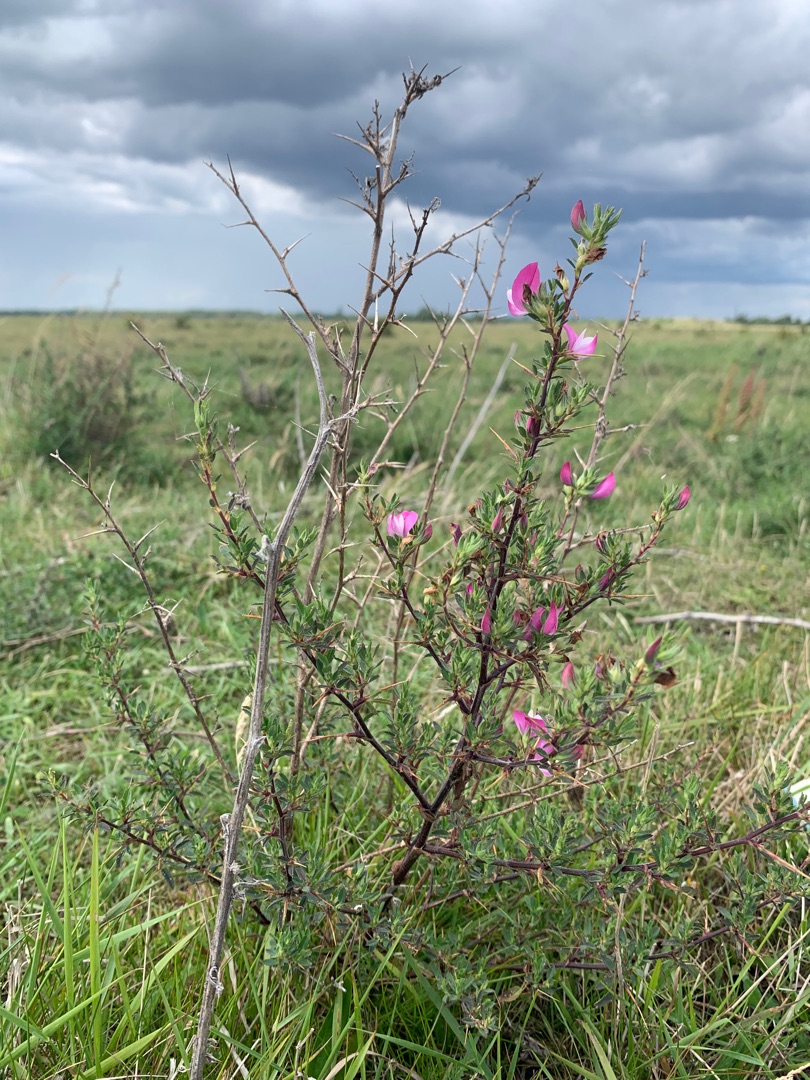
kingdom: Plantae
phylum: Tracheophyta
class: Magnoliopsida
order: Fabales
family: Fabaceae
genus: Ononis
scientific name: Ononis spinosa
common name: Strand-krageklo
